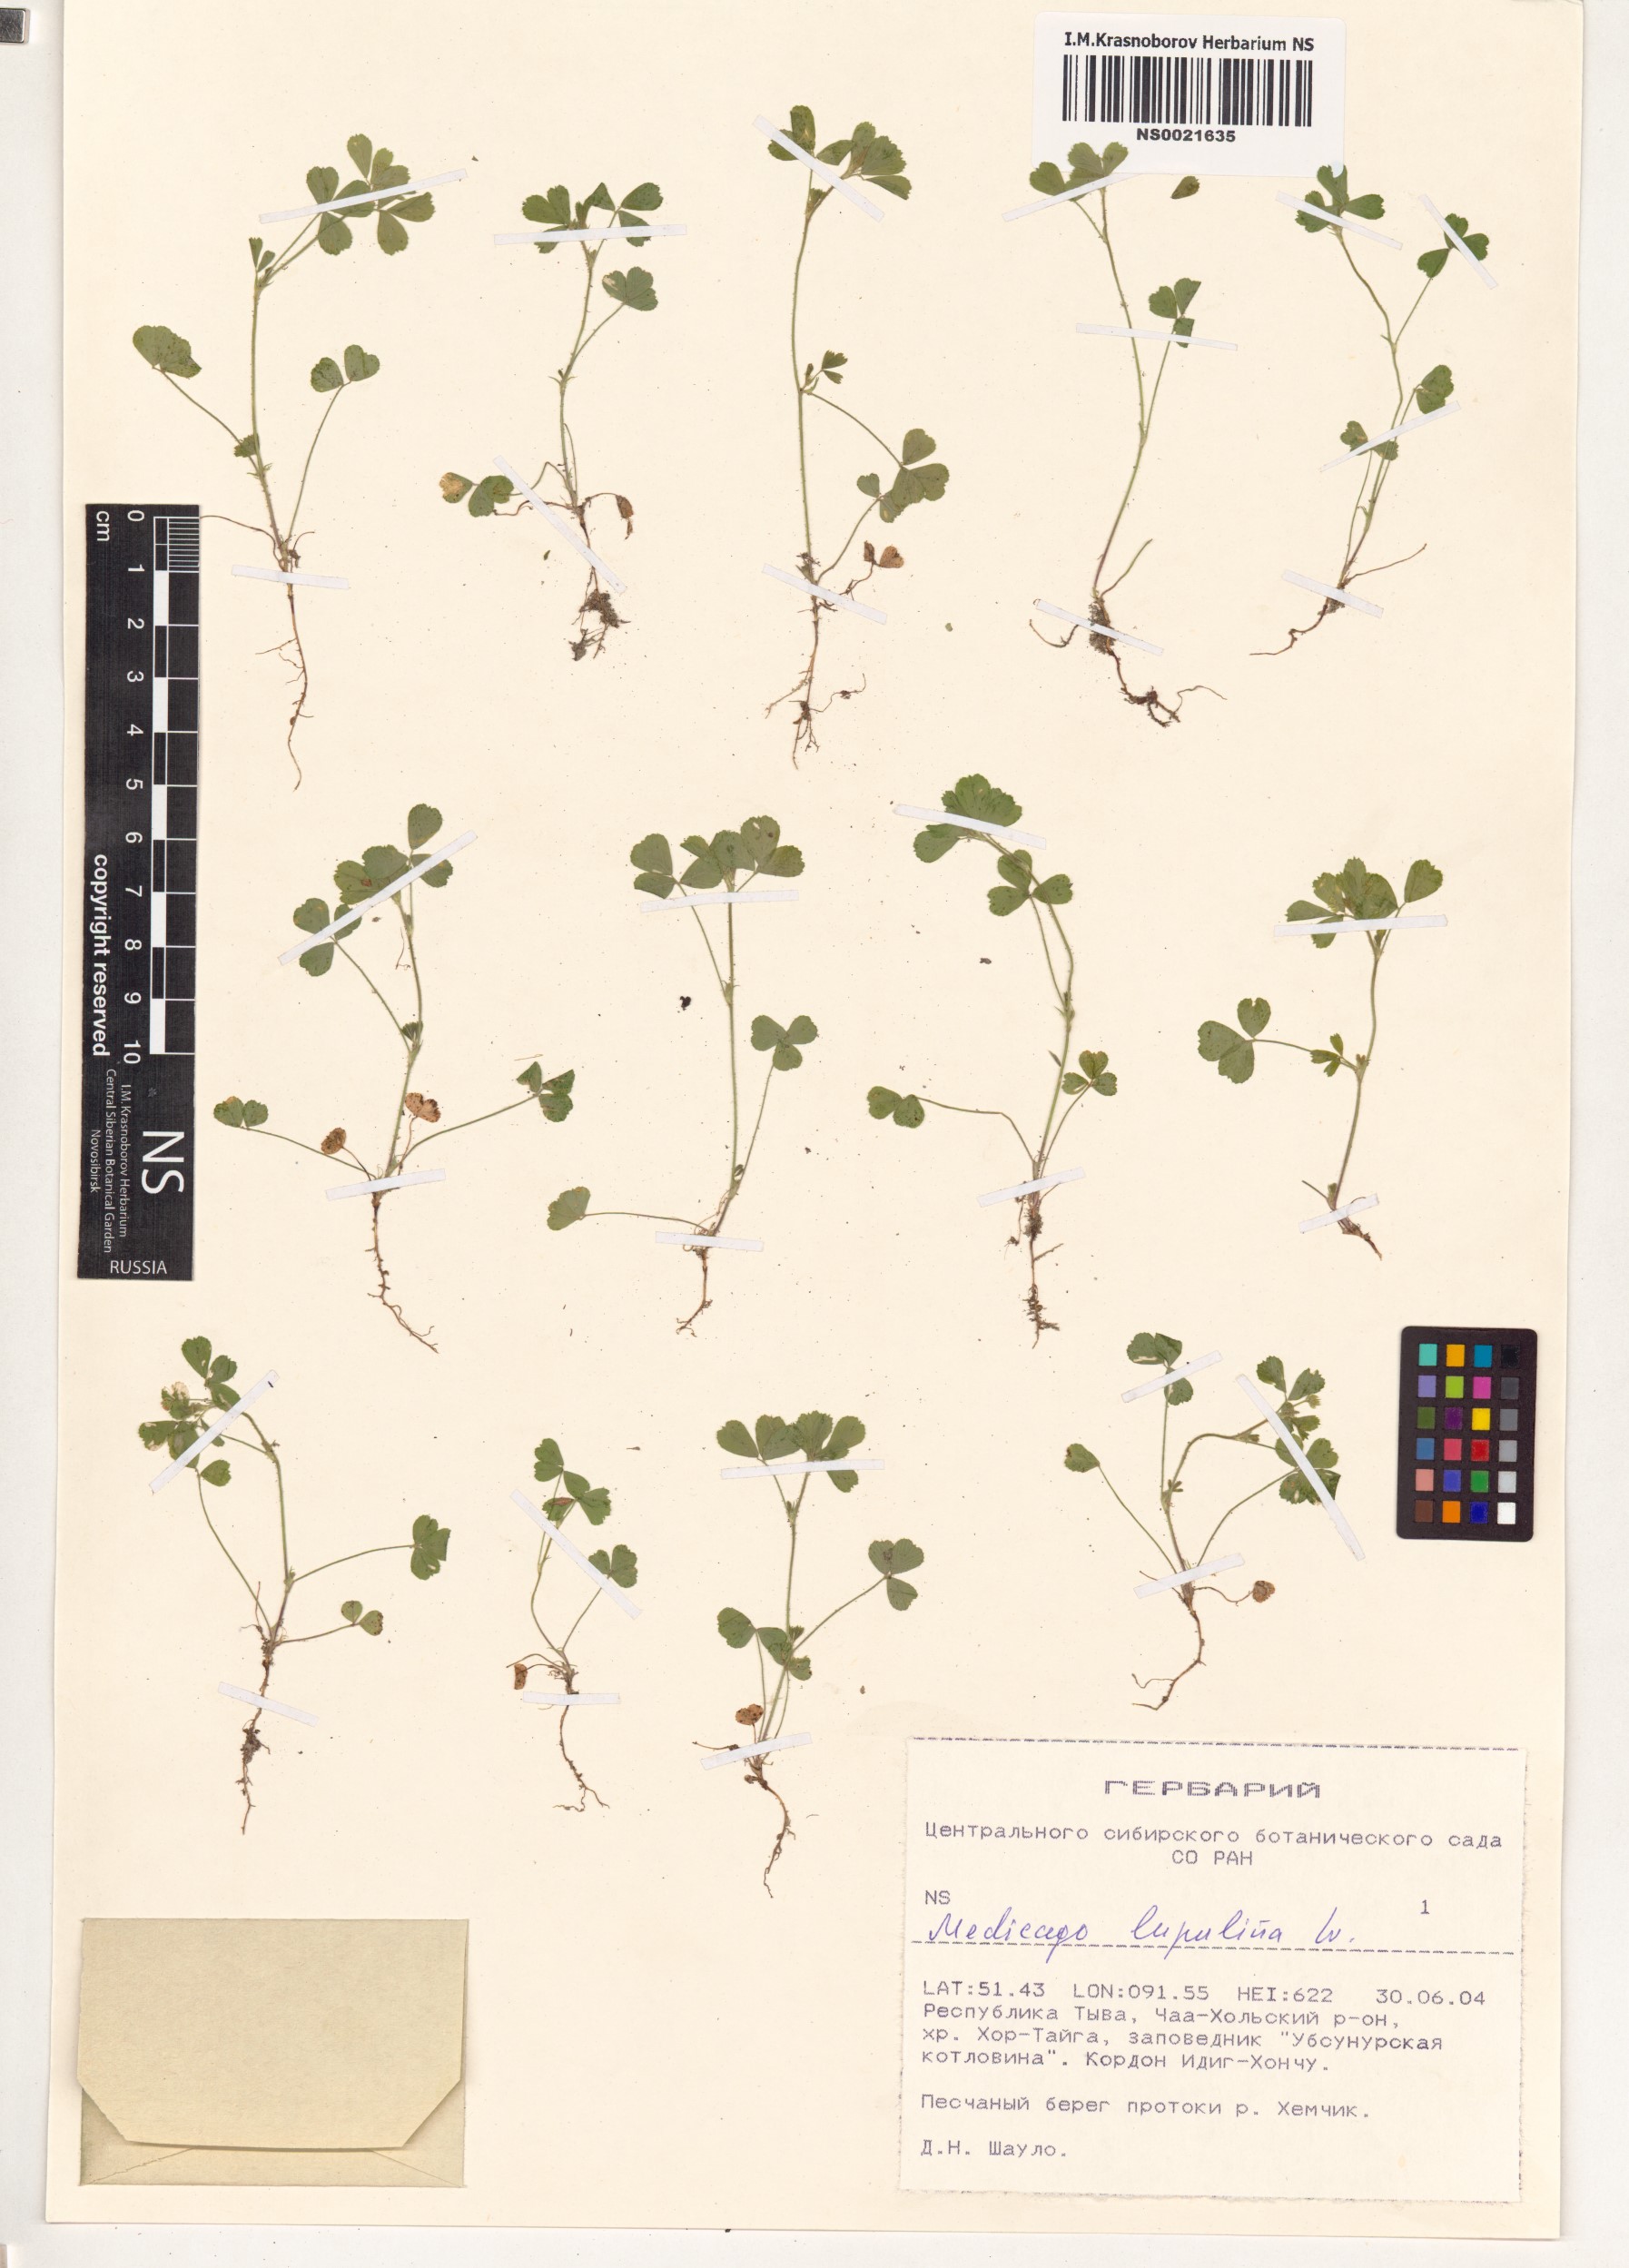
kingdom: Plantae
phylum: Tracheophyta
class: Magnoliopsida
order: Fabales
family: Fabaceae
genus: Medicago
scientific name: Medicago lupulina
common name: Black medick
